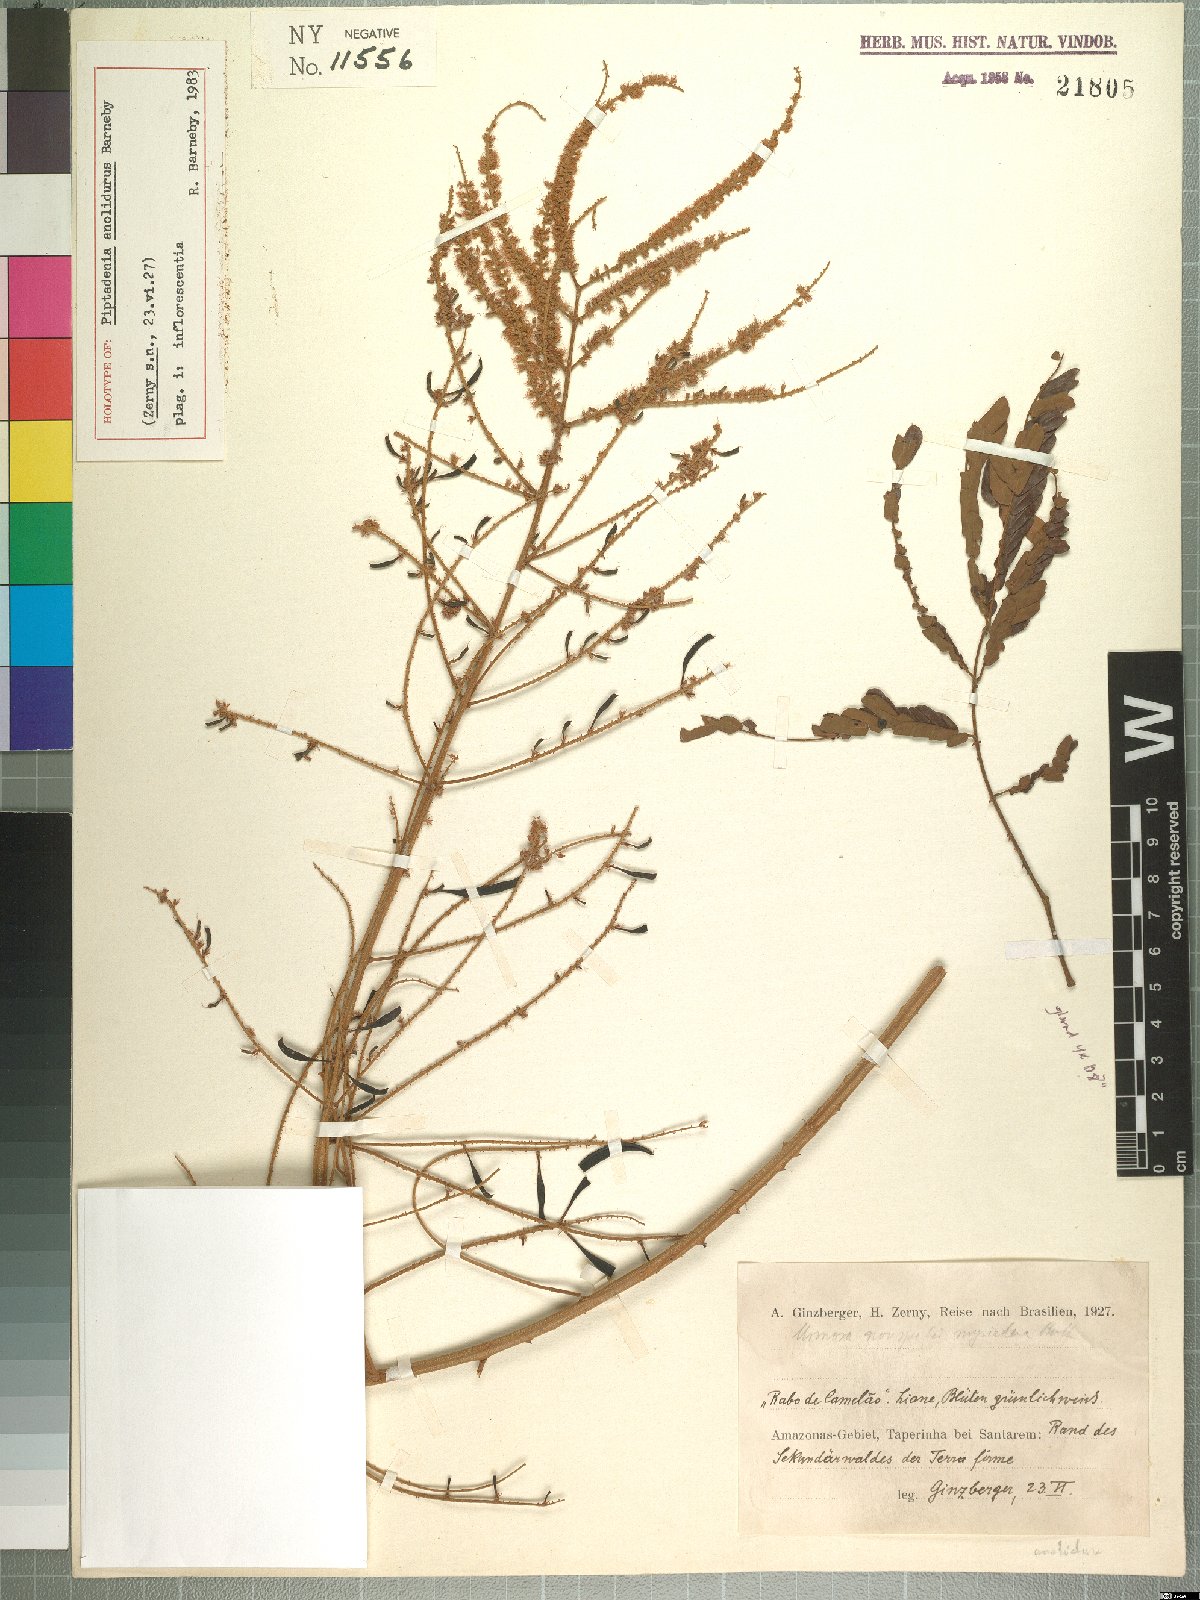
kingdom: Plantae
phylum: Tracheophyta
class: Magnoliopsida
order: Fabales
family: Fabaceae
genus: Piptadenia
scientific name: Piptadenia anolidurus
